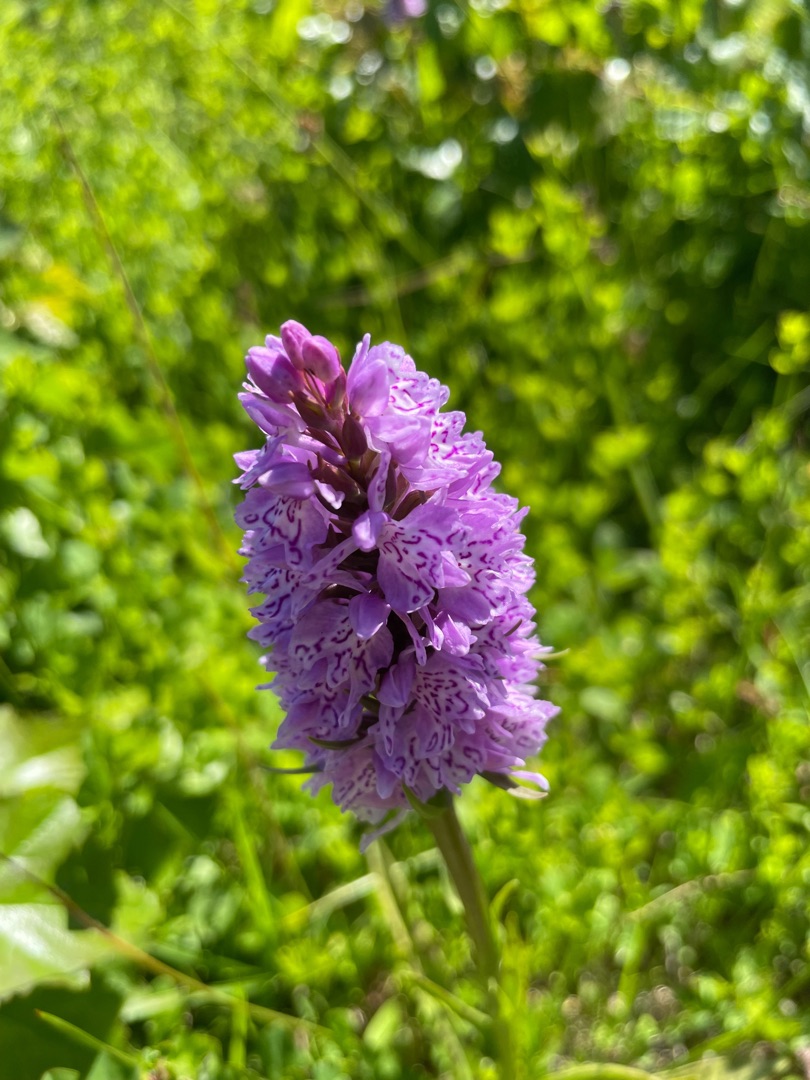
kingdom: Plantae
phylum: Tracheophyta
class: Liliopsida
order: Asparagales
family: Orchidaceae
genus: Dactylorhiza
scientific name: Dactylorhiza maculata
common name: Plettet gøgeurt
